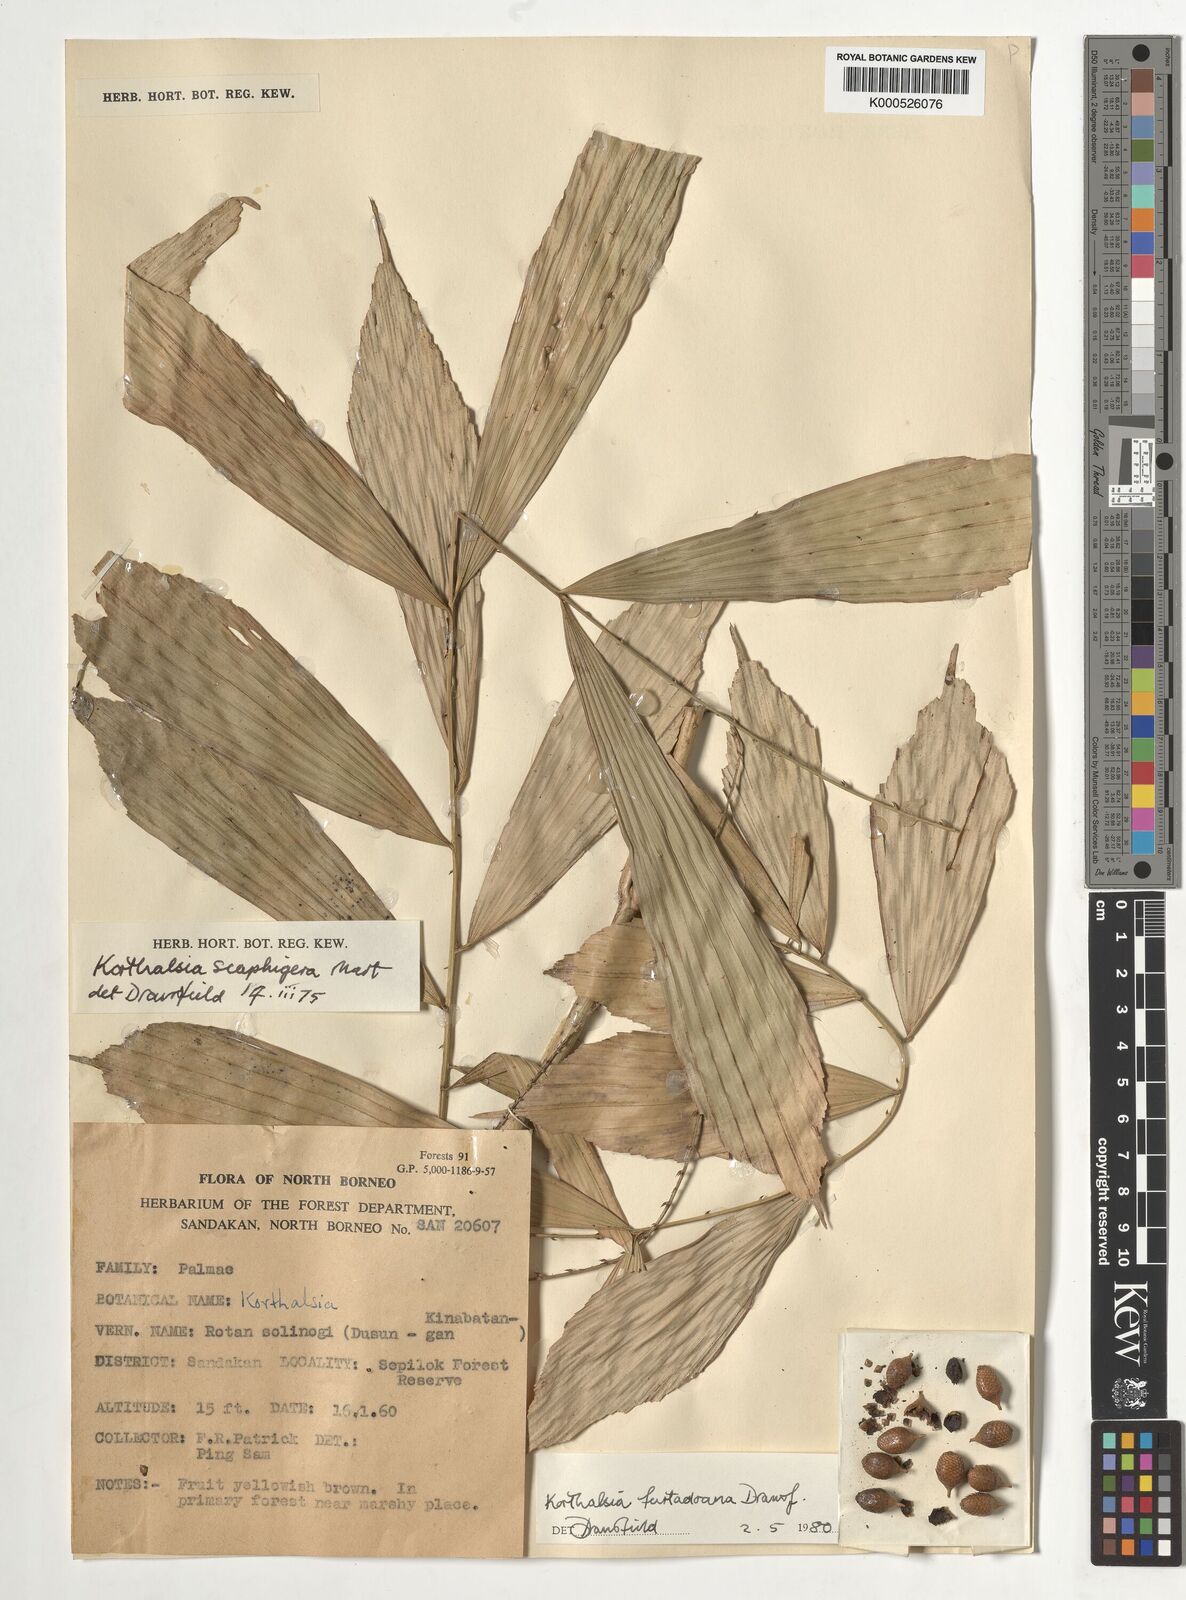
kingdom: Plantae
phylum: Tracheophyta
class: Liliopsida
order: Arecales
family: Arecaceae
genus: Korthalsia
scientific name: Korthalsia furtadoana
